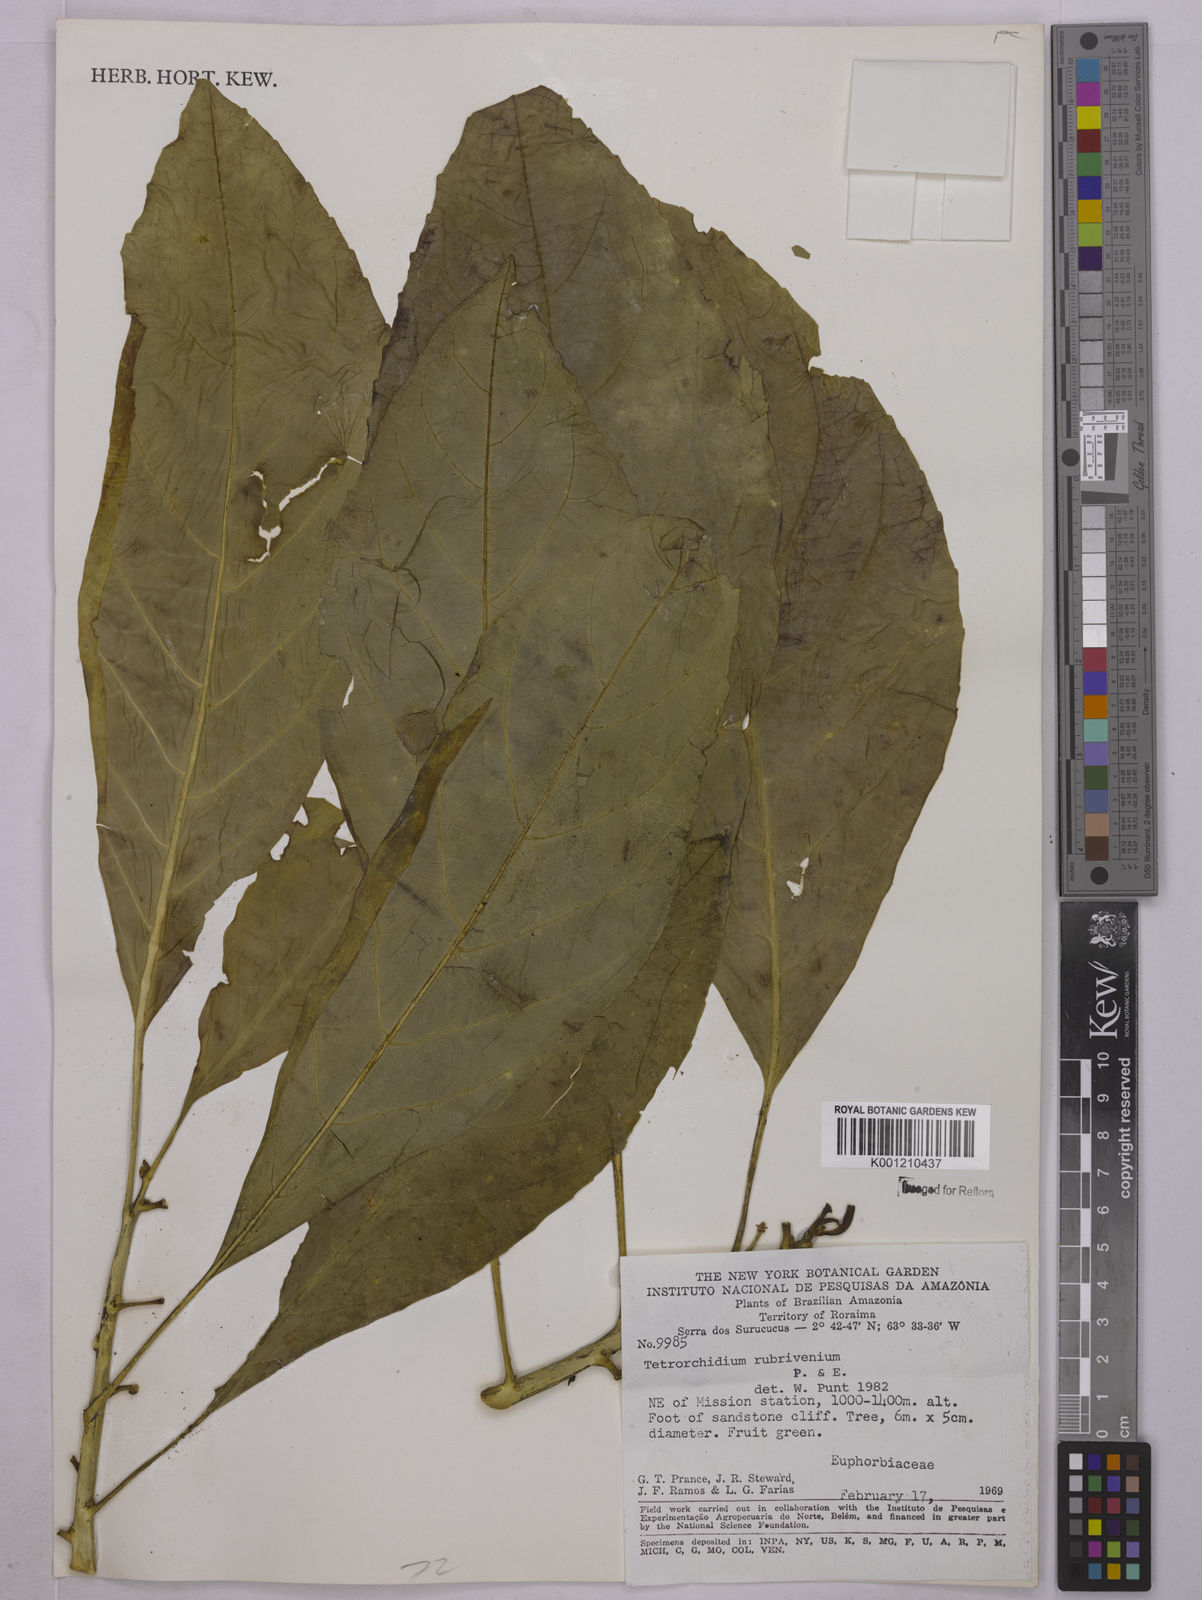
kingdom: Plantae
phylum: Tracheophyta
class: Magnoliopsida
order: Malpighiales
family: Euphorbiaceae
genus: Tetrorchidium
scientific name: Tetrorchidium rubrivenium
